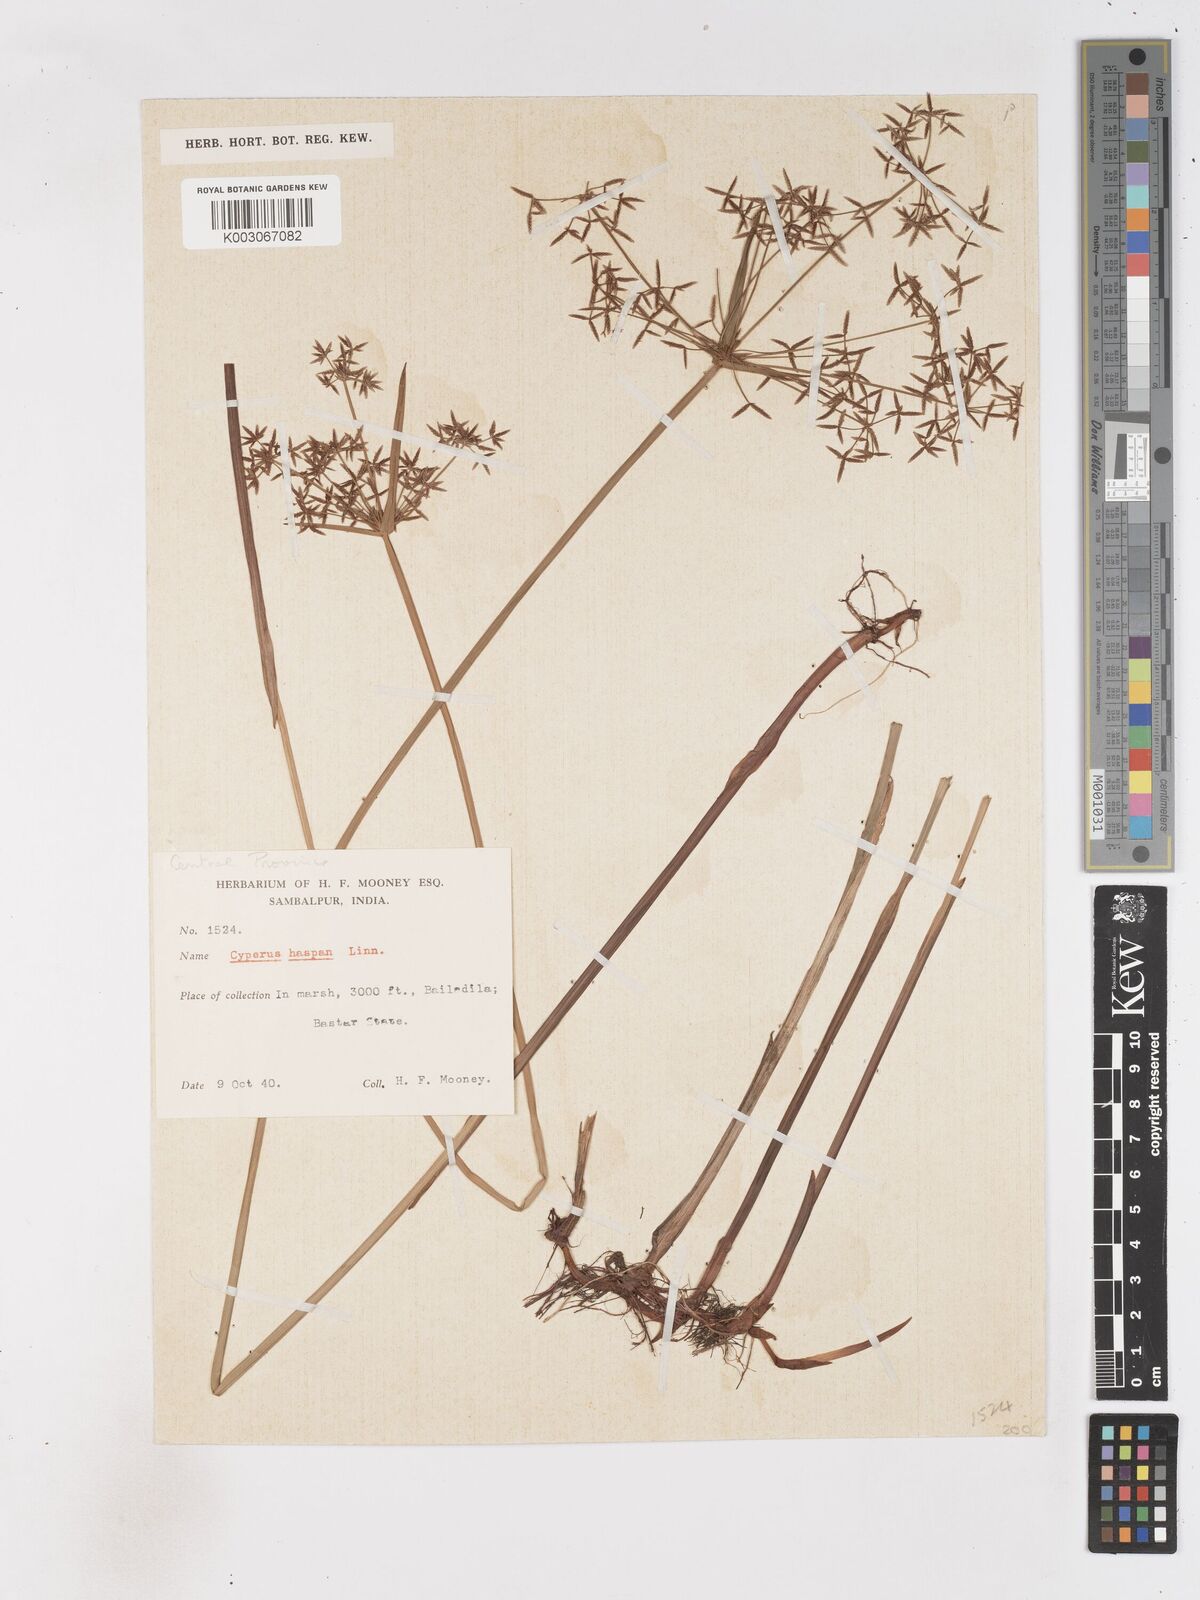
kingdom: Plantae
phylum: Tracheophyta
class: Liliopsida
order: Poales
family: Cyperaceae
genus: Cyperus
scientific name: Cyperus haspan
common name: Haspan flatsedge
